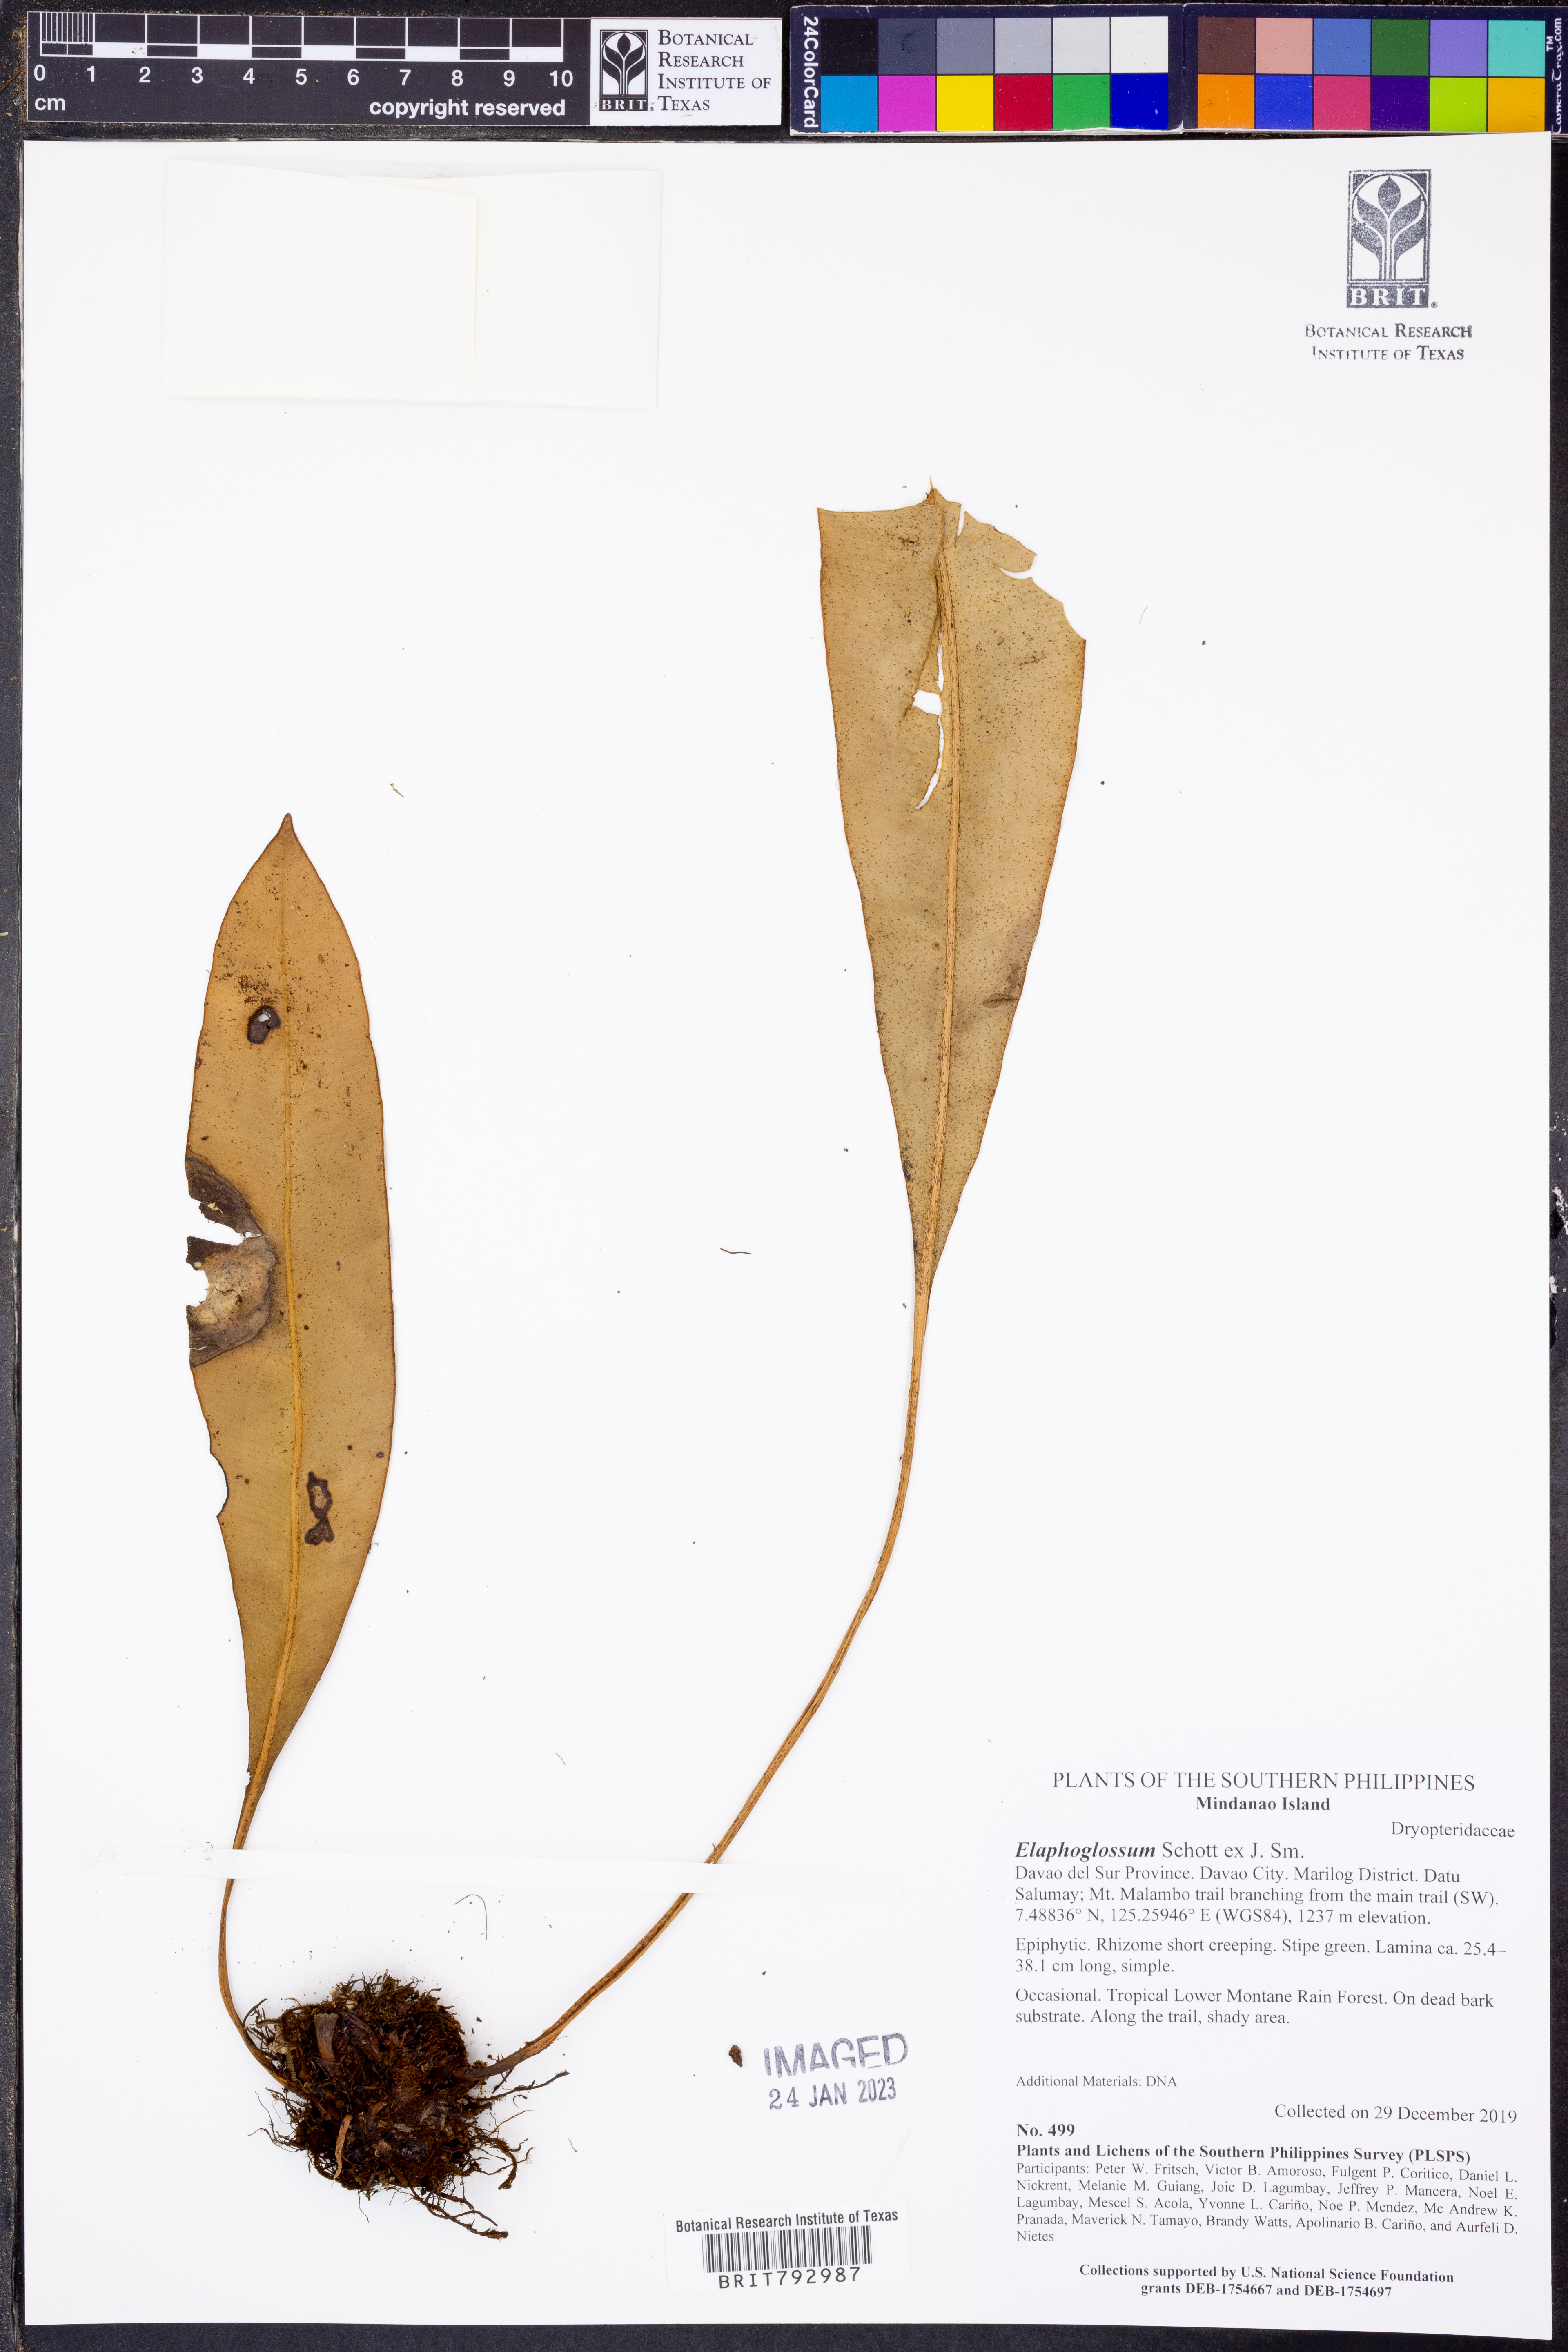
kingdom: Plantae
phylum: Tracheophyta
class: Polypodiopsida
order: Polypodiales
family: Dryopteridaceae
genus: Elaphoglossum
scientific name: Elaphoglossum
